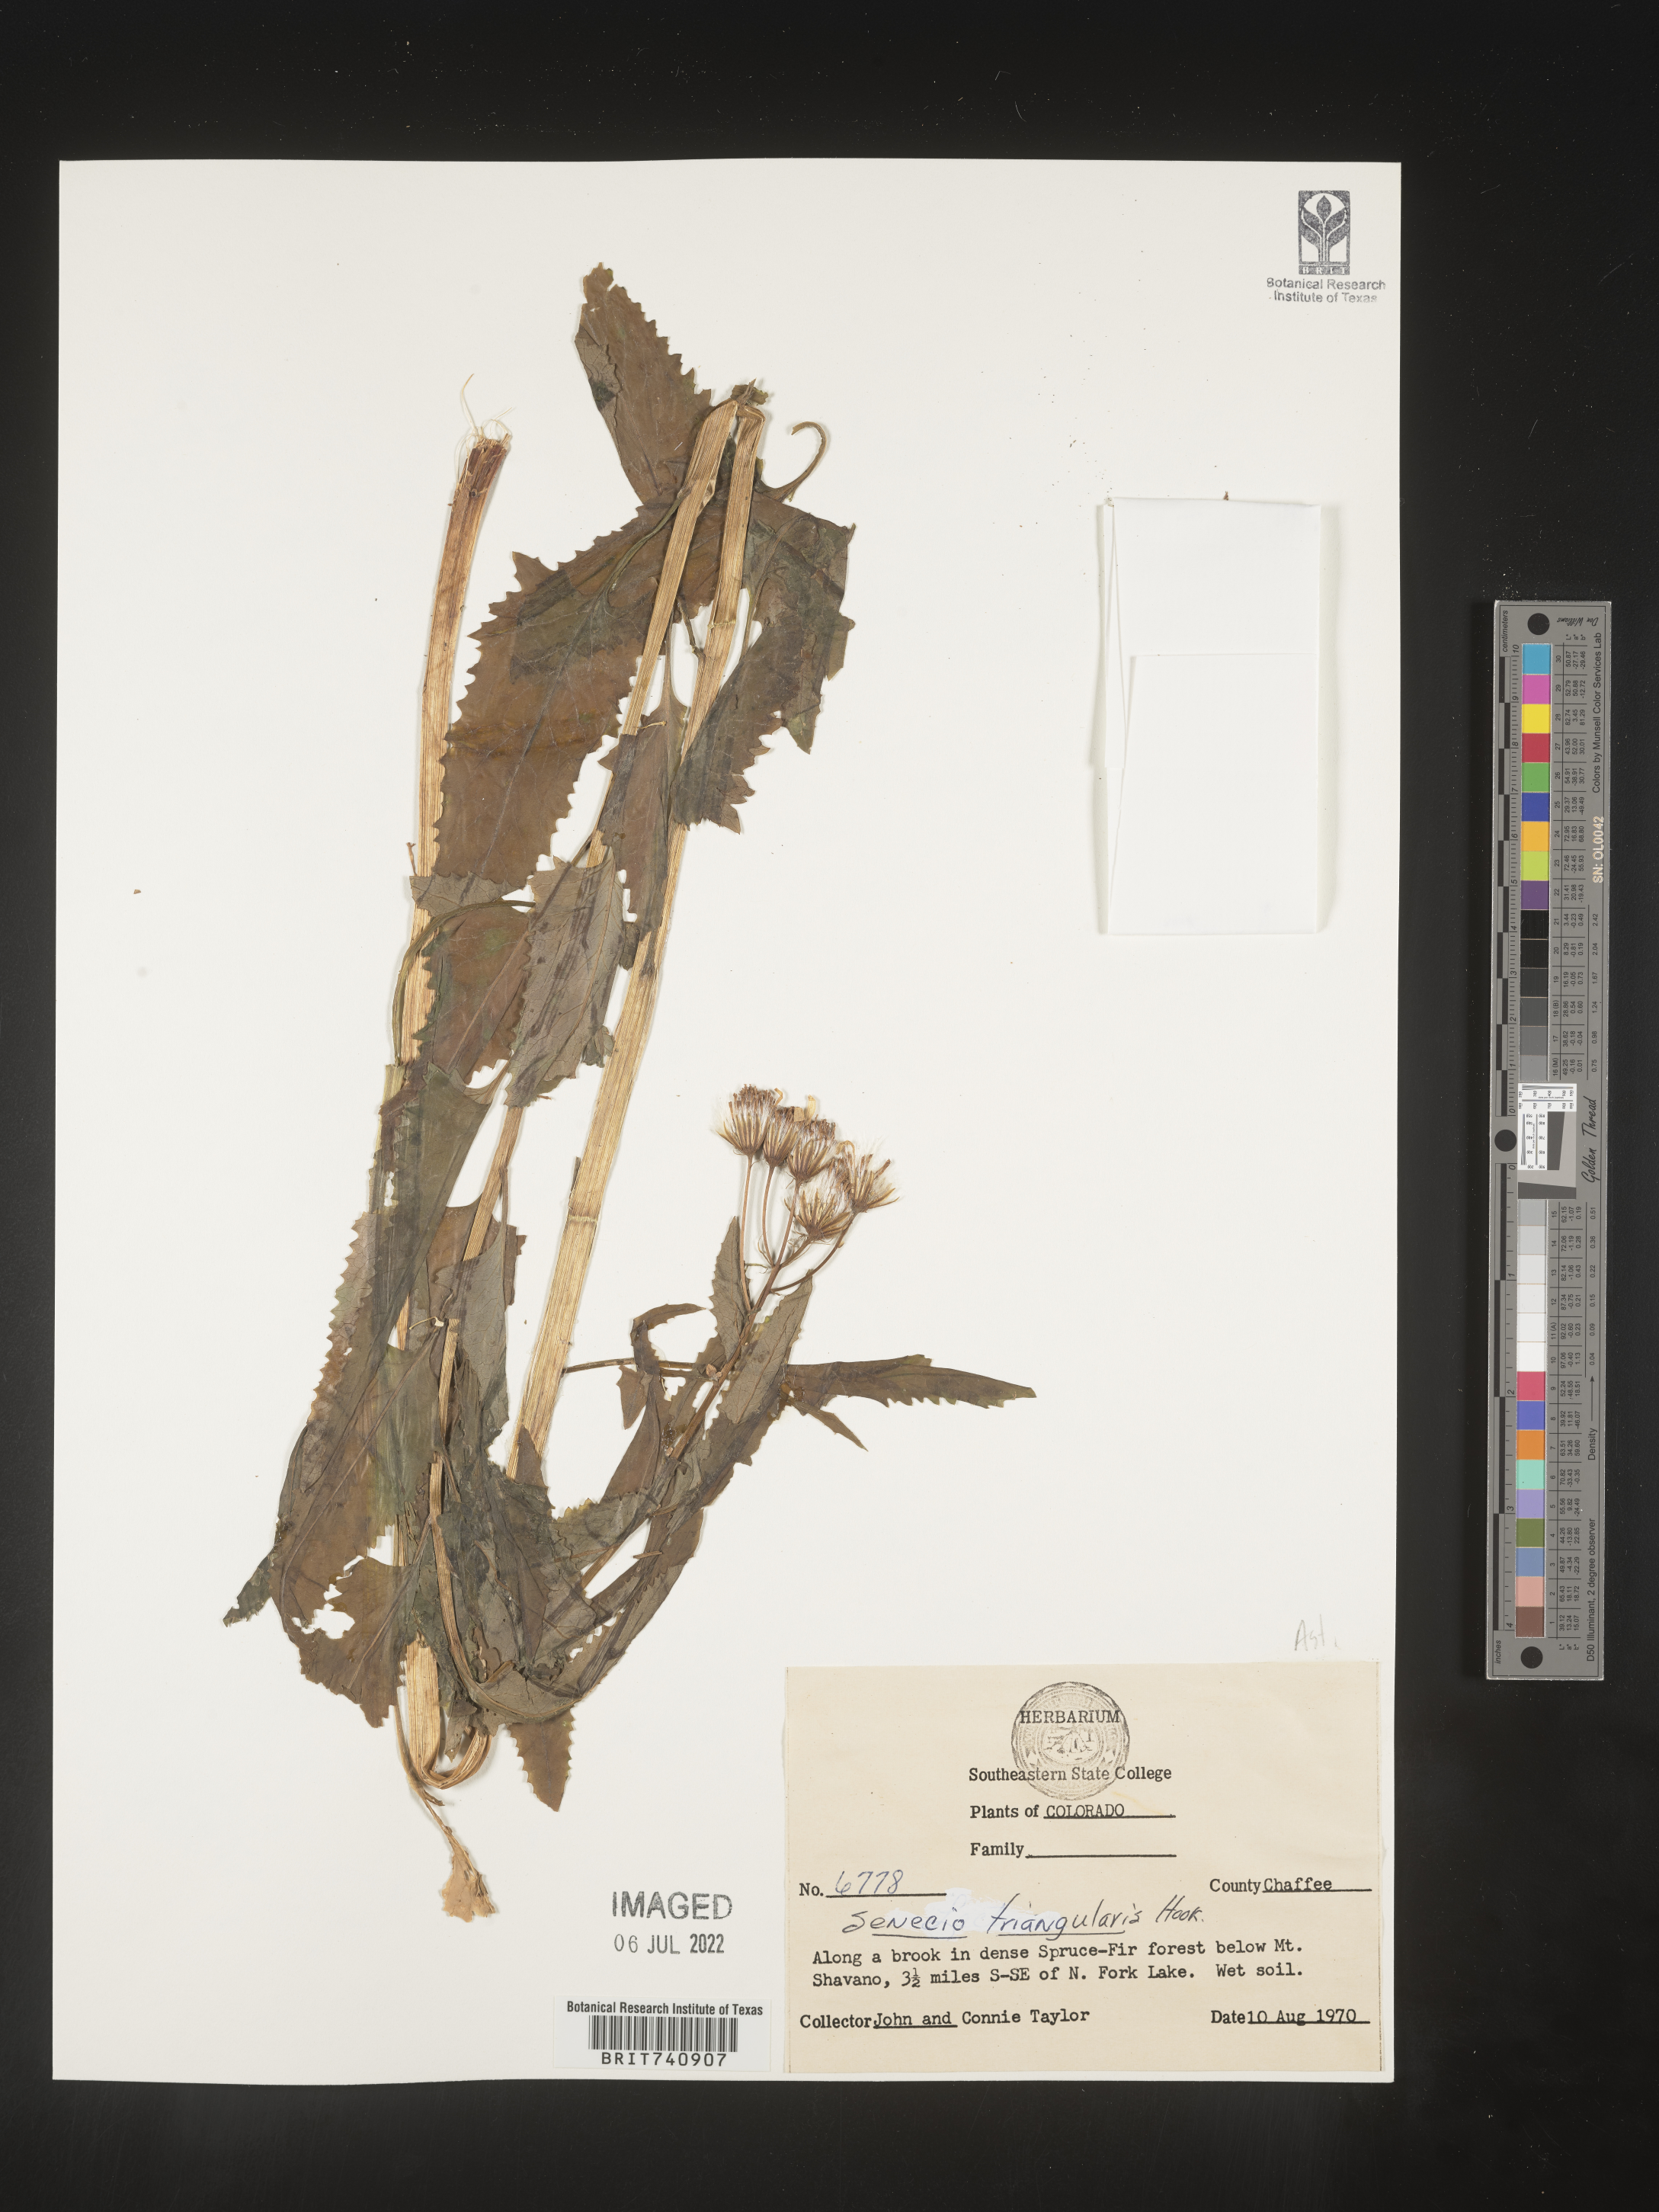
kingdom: Plantae
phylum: Tracheophyta
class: Magnoliopsida
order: Asterales
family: Asteraceae
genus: Senecio
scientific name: Senecio triangularis
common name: Arrowleaf butterweed
